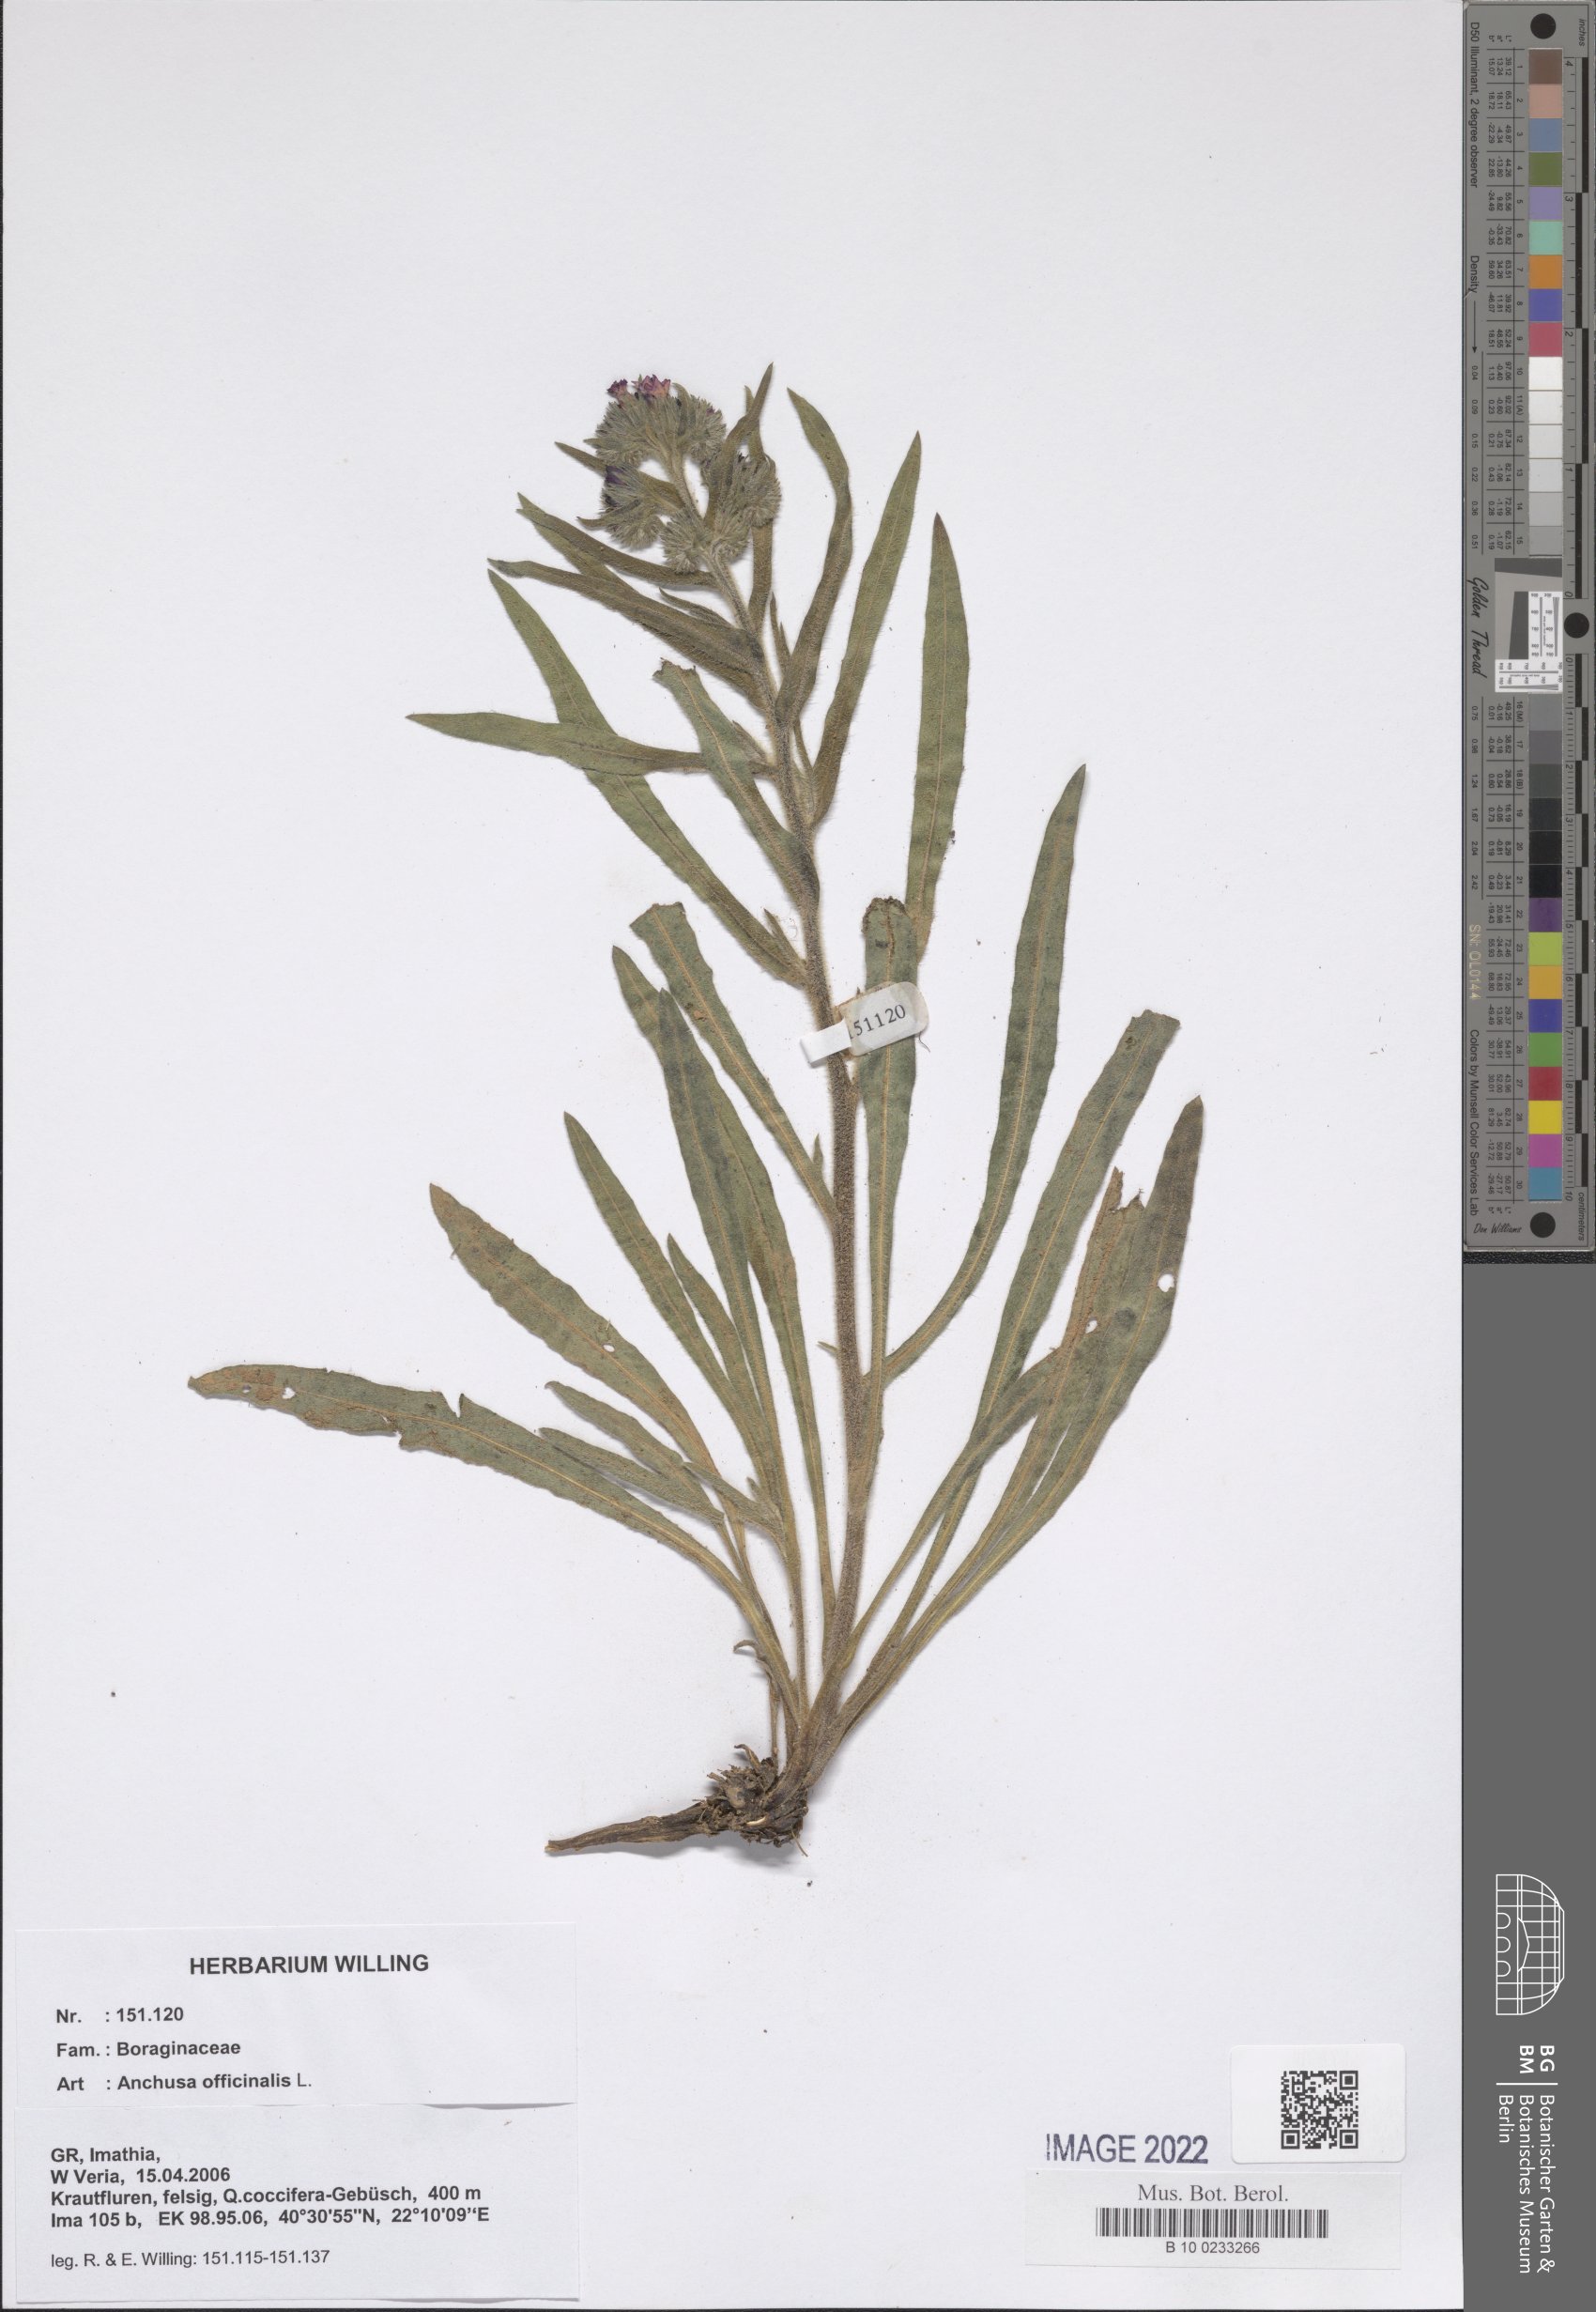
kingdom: Plantae
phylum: Tracheophyta
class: Magnoliopsida
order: Boraginales
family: Boraginaceae
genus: Anchusa
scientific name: Anchusa officinalis
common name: Alkanet
